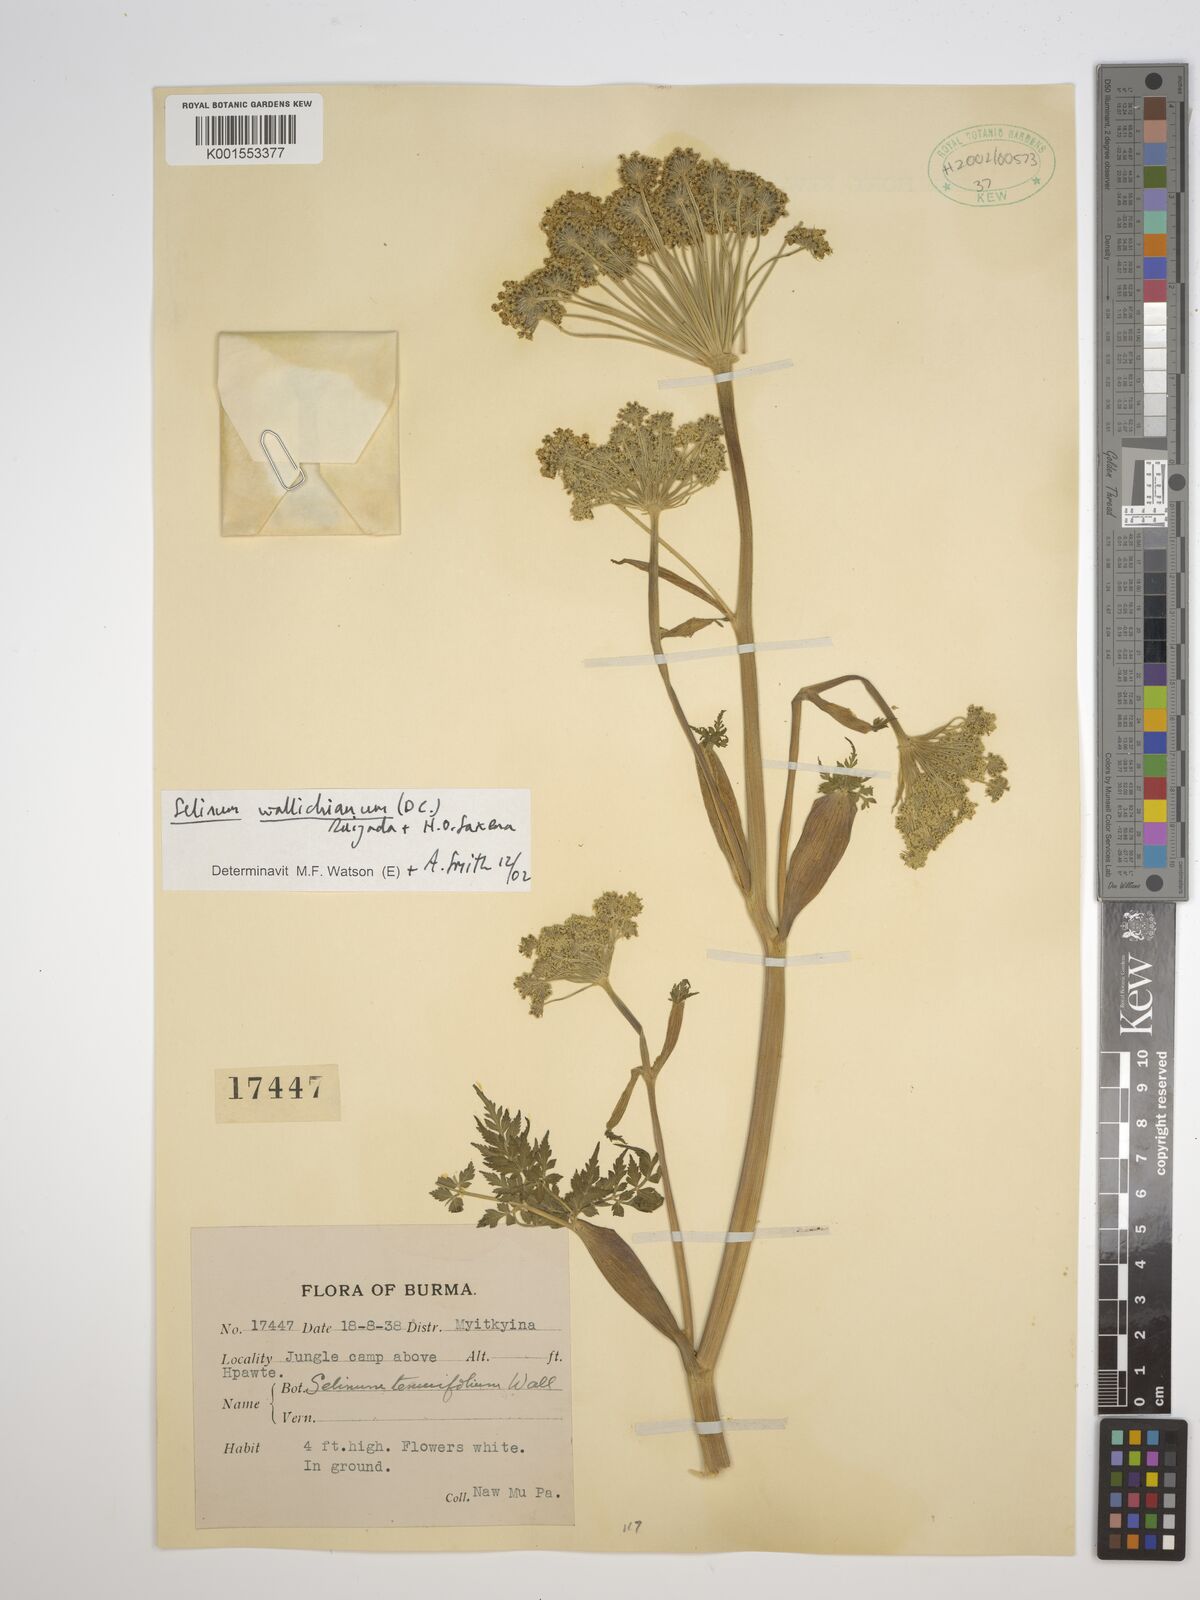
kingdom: Plantae
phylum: Tracheophyta
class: Magnoliopsida
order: Apiales
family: Apiaceae
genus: Ligusticopsis
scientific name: Ligusticopsis wallichiana
